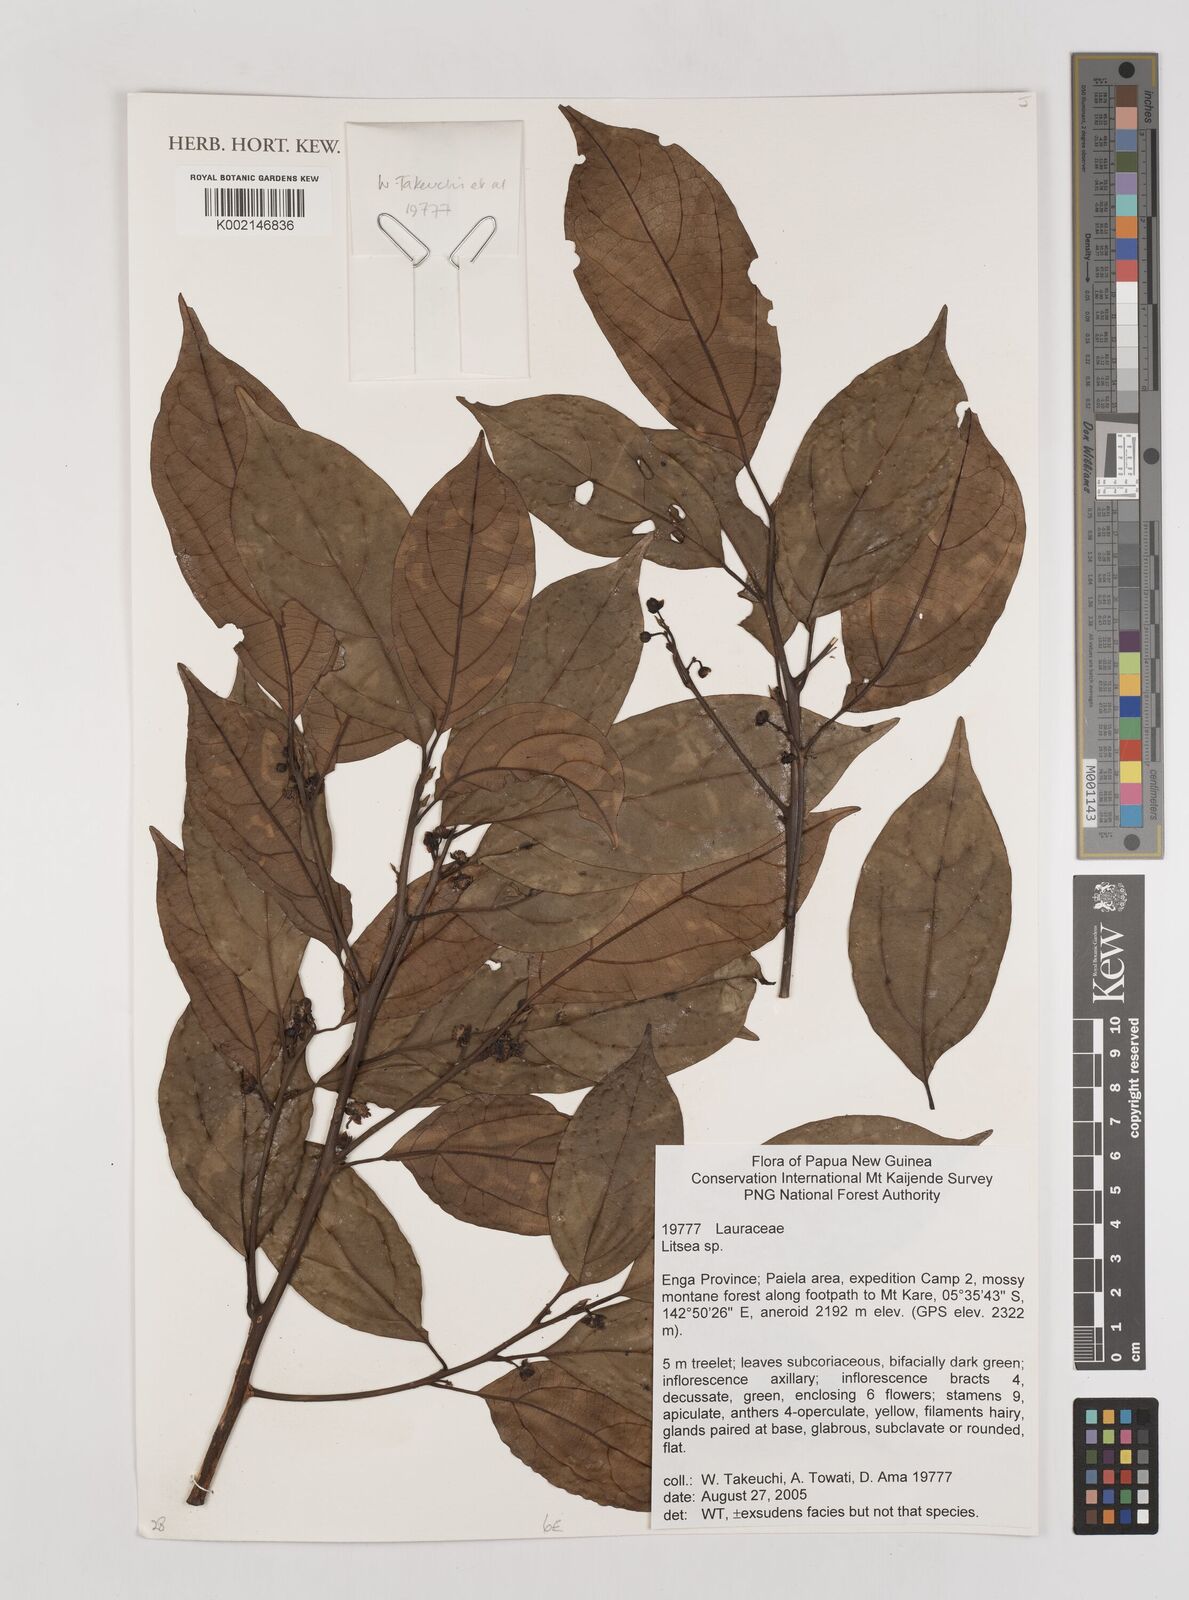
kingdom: Plantae
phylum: Tracheophyta
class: Magnoliopsida
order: Laurales
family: Lauraceae
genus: Litsea
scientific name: Litsea
